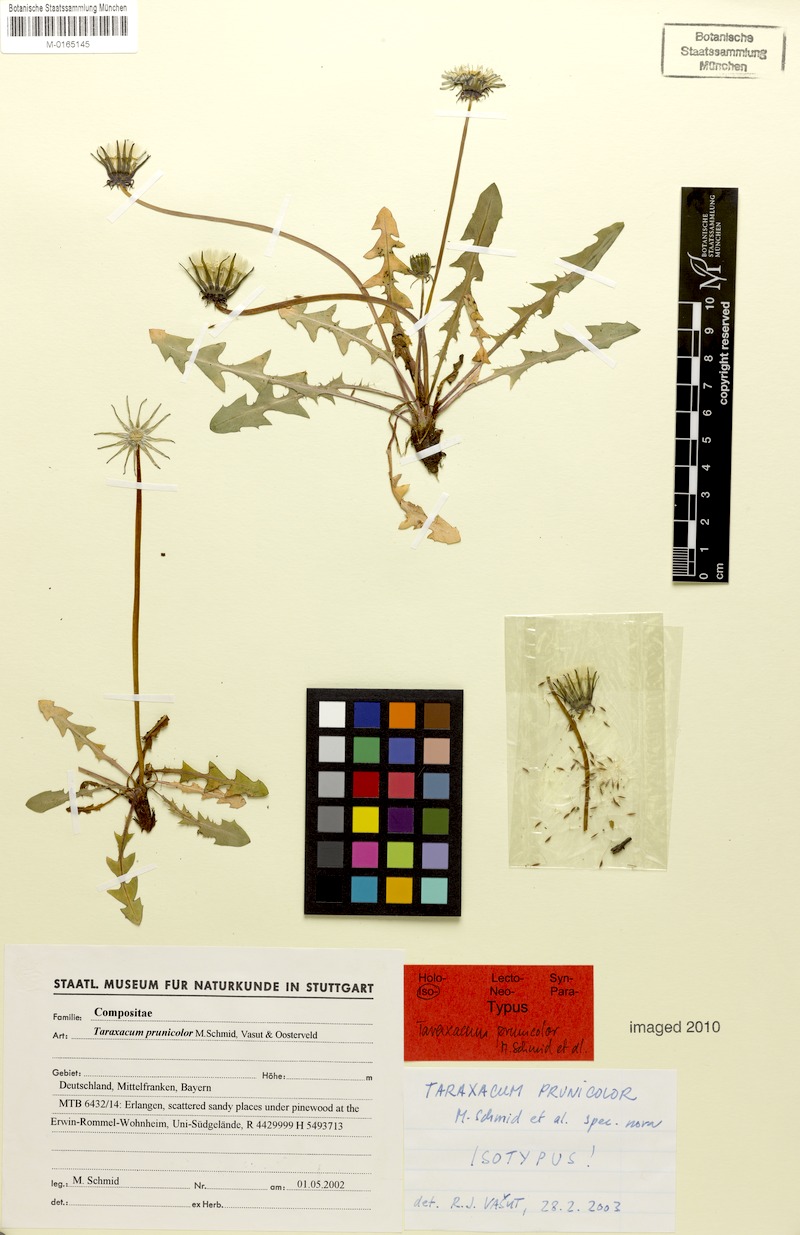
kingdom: Plantae
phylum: Tracheophyta
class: Magnoliopsida
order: Asterales
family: Asteraceae
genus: Taraxacum
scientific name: Taraxacum bellicum
